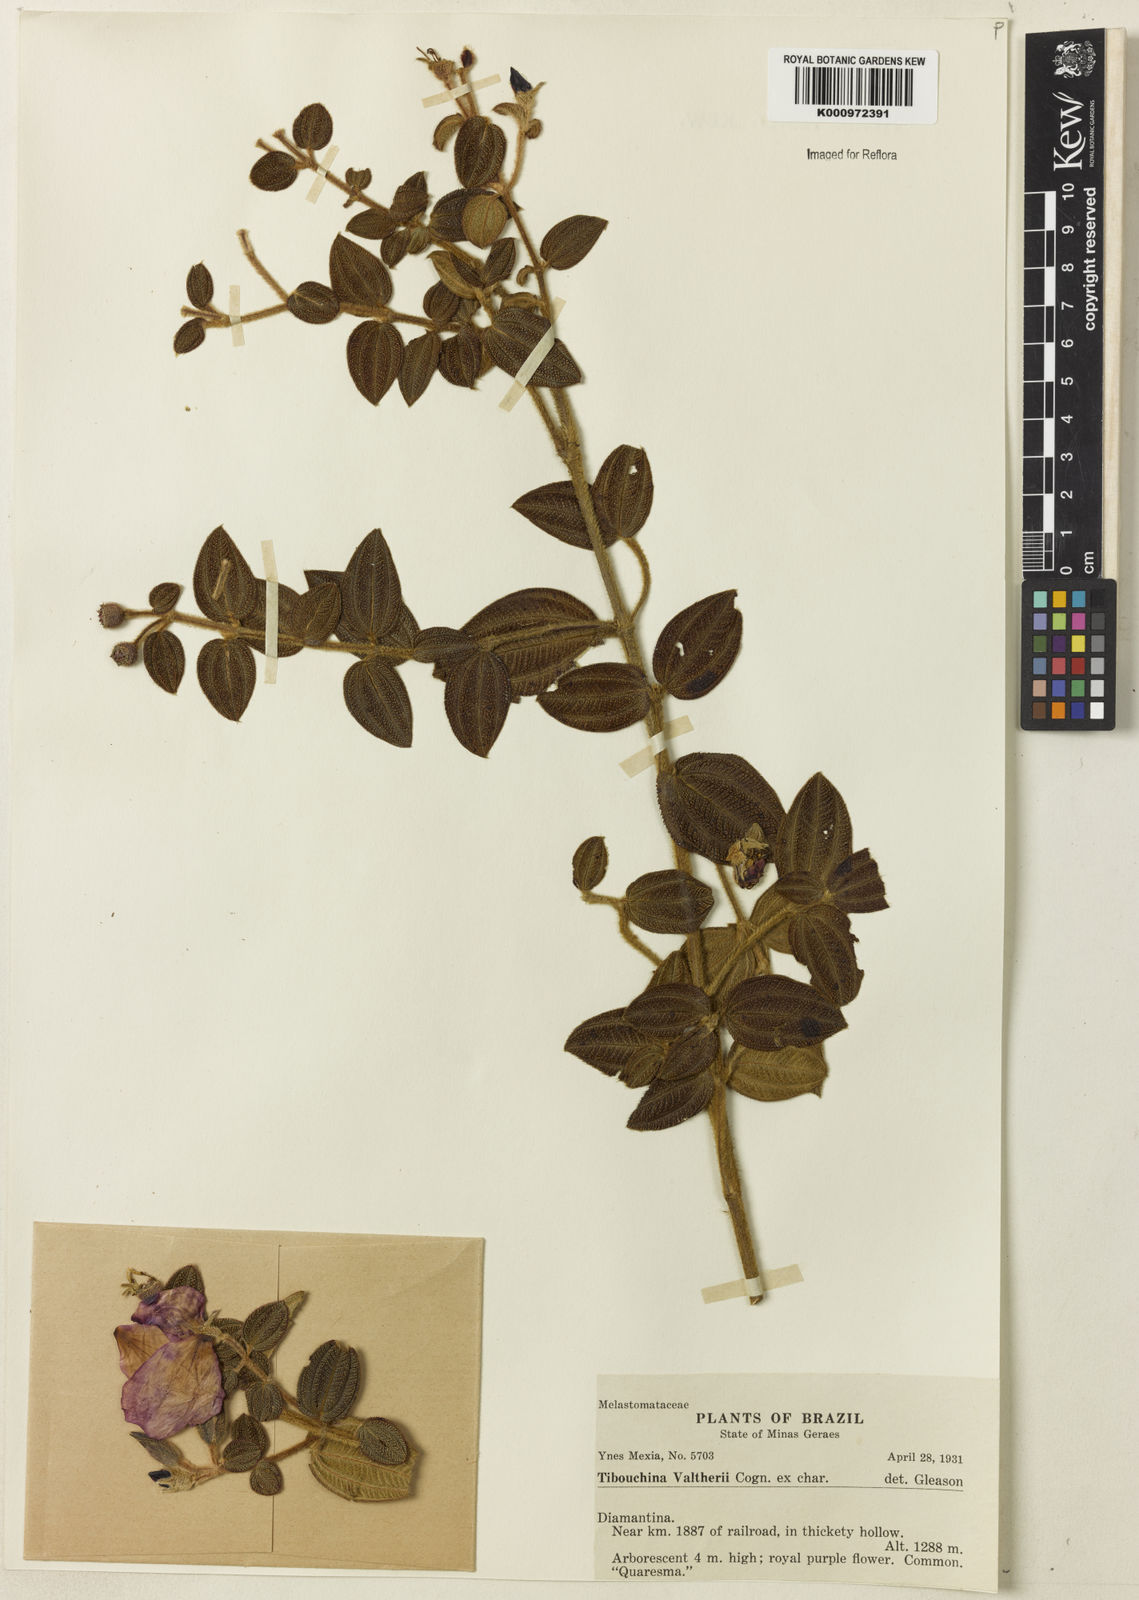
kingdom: Plantae
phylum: Tracheophyta
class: Magnoliopsida
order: Myrtales
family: Melastomataceae
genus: Pleroma
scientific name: Pleroma aemula
